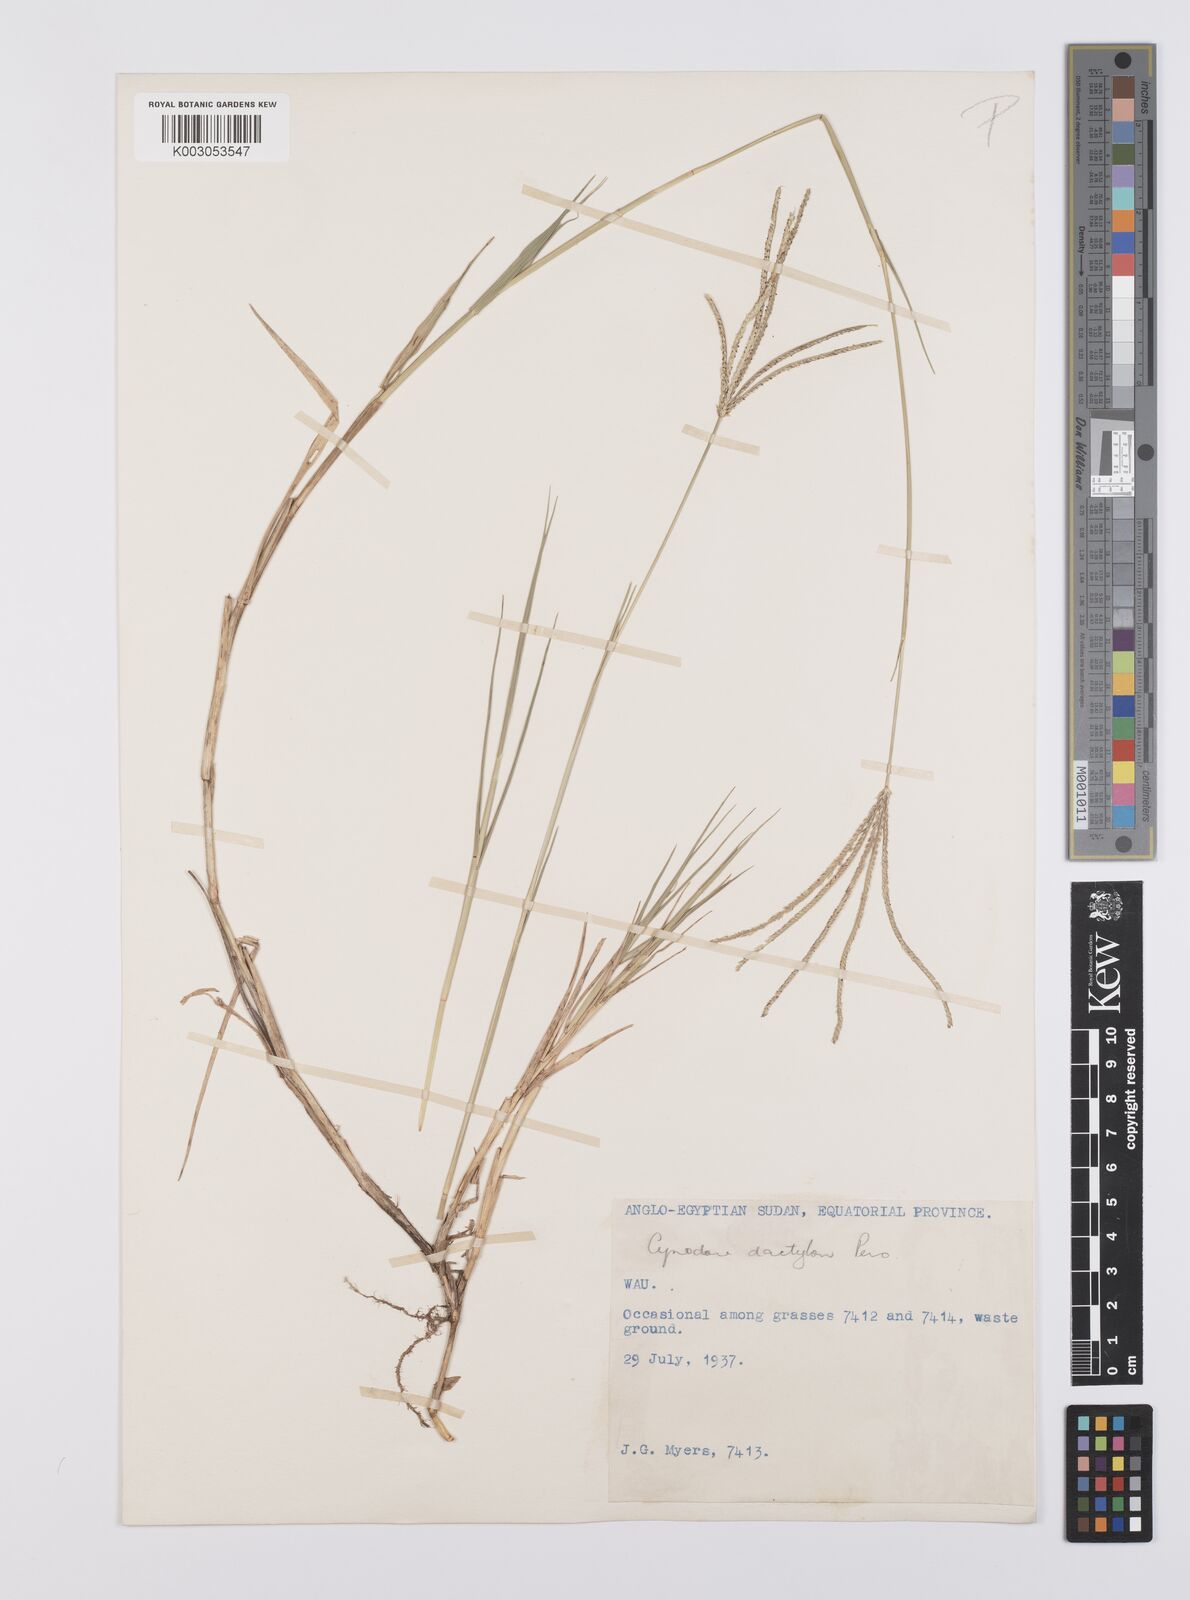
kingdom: Plantae
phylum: Tracheophyta
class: Liliopsida
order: Poales
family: Poaceae
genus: Cynodon
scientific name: Cynodon dactylon
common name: Bermuda grass
